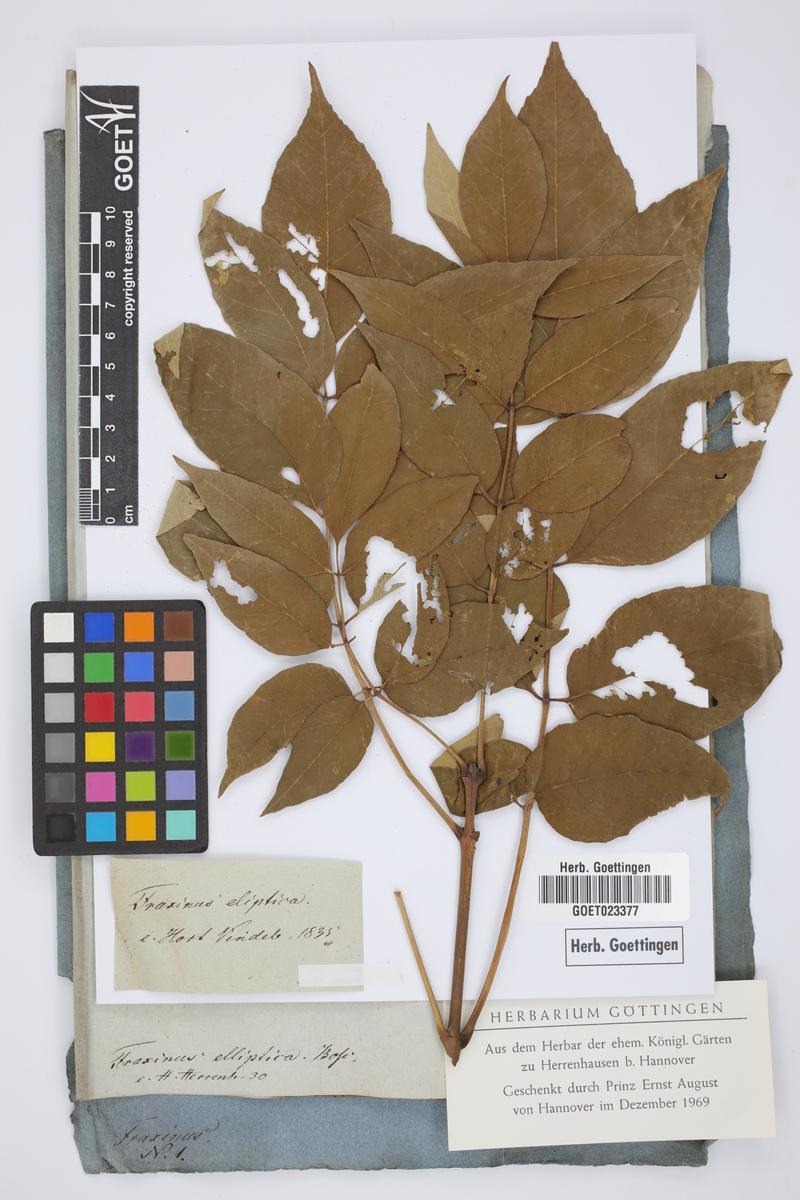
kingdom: Plantae
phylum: Tracheophyta
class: Magnoliopsida
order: Lamiales
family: Oleaceae
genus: Fraxinus
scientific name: Fraxinus pennsylvanica
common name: Green ash
